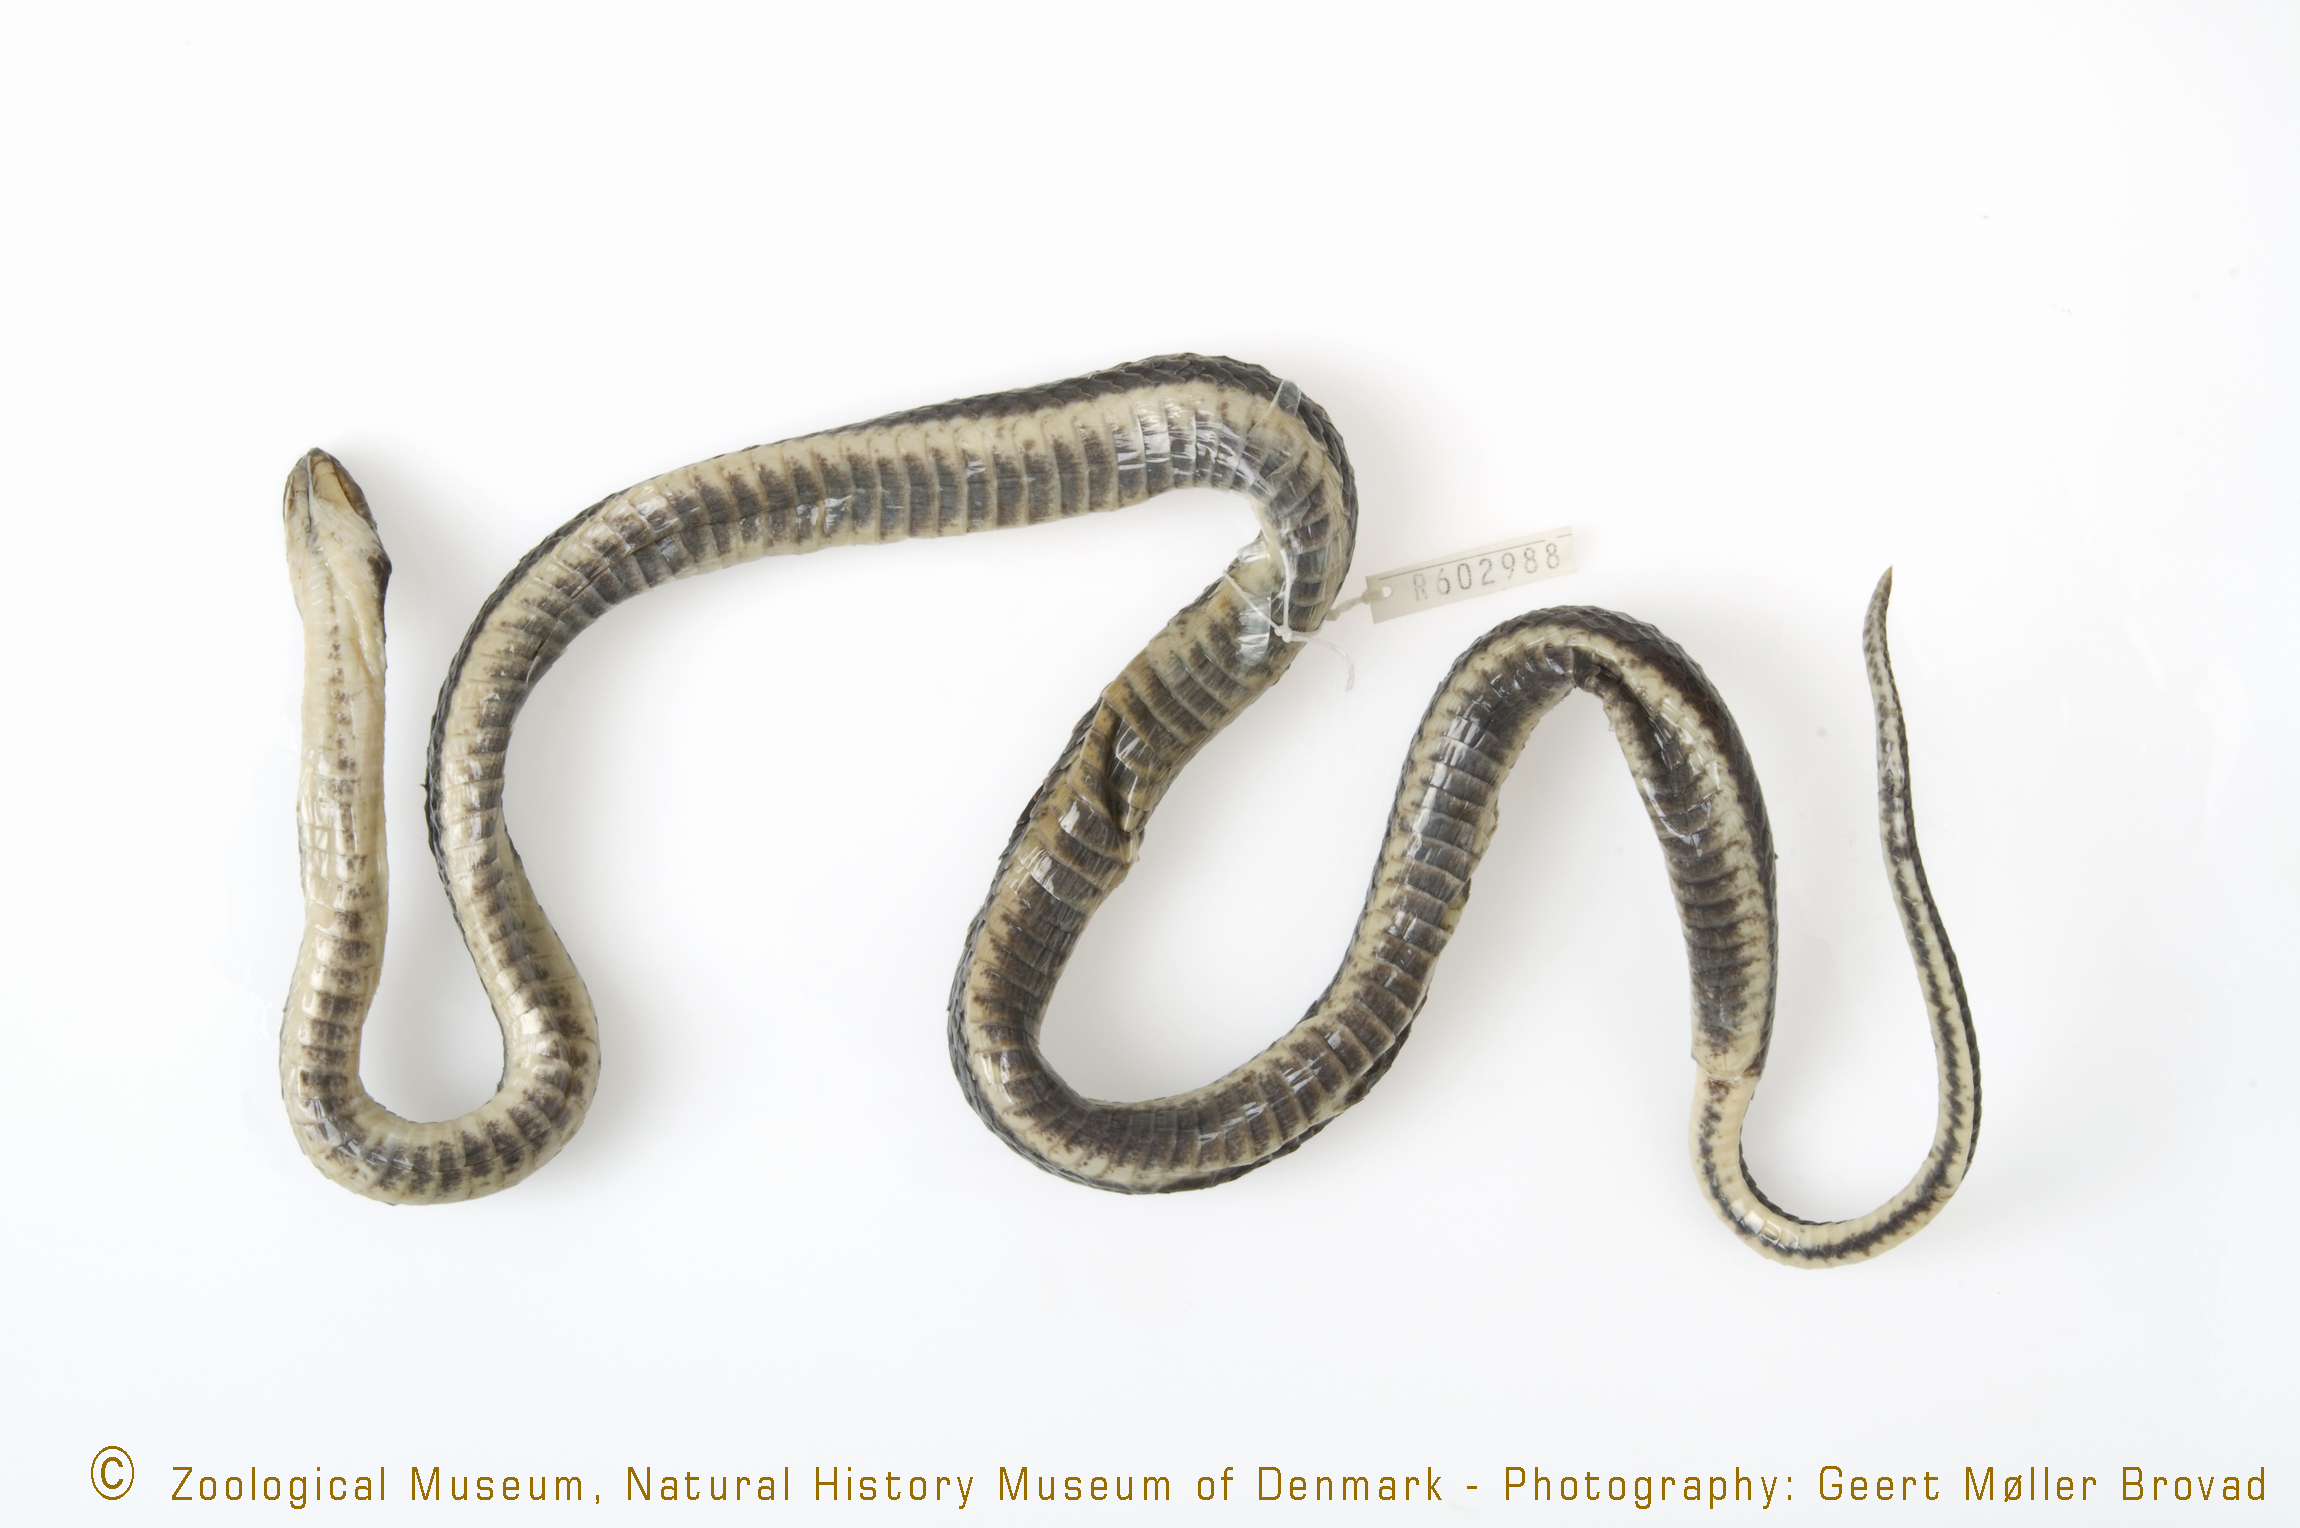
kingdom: Animalia
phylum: Chordata
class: Squamata
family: Lamprophiidae
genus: Lycodonomorphus
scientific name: Lycodonomorphus whytii
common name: Whyte's water snake
